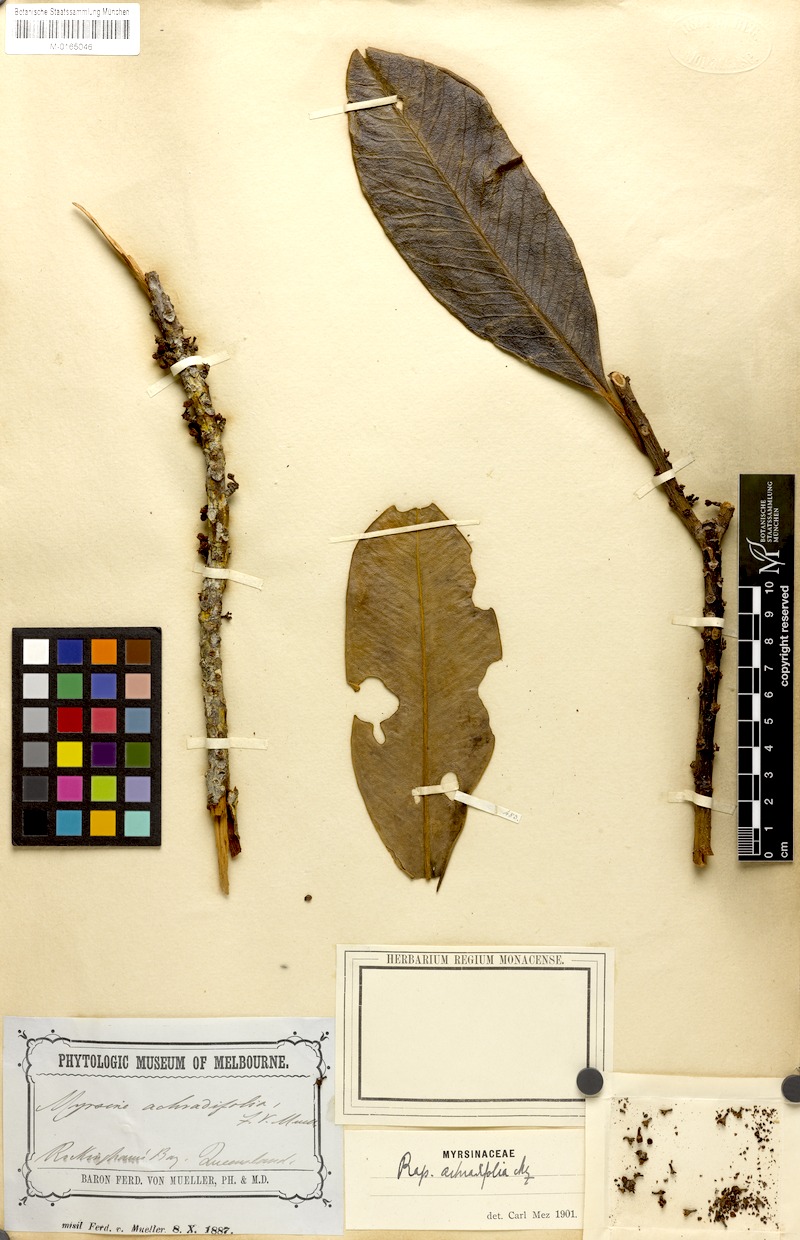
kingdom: Plantae
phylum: Tracheophyta
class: Magnoliopsida
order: Ericales
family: Primulaceae
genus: Myrsine
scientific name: Myrsine achradifolia
